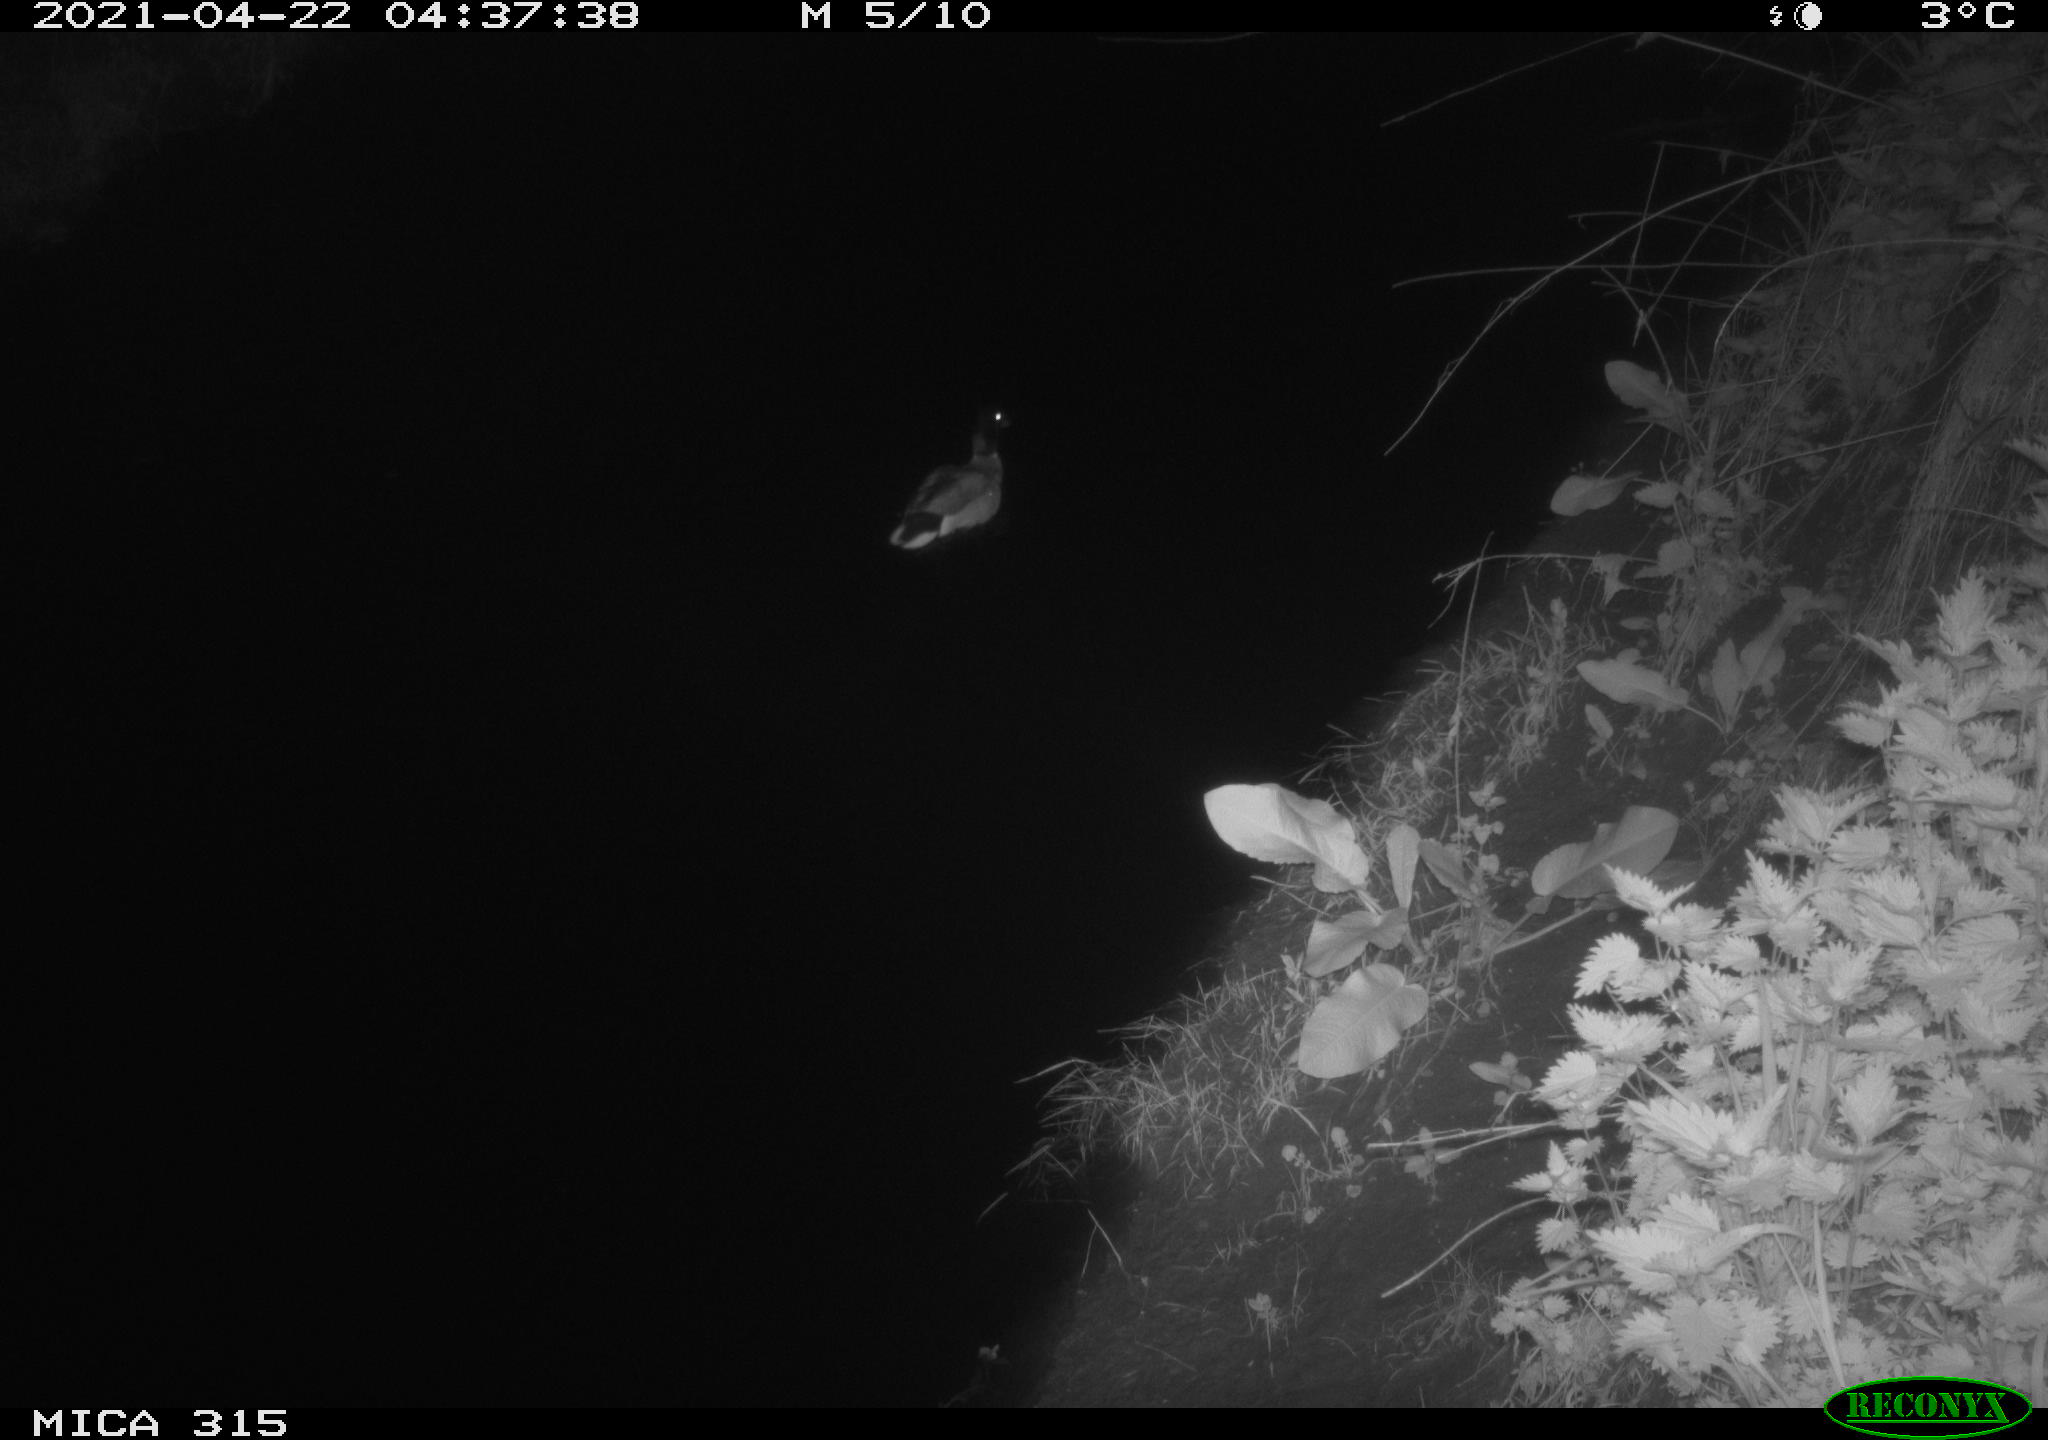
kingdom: Animalia
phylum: Chordata
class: Aves
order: Anseriformes
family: Anatidae
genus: Anas
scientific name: Anas
